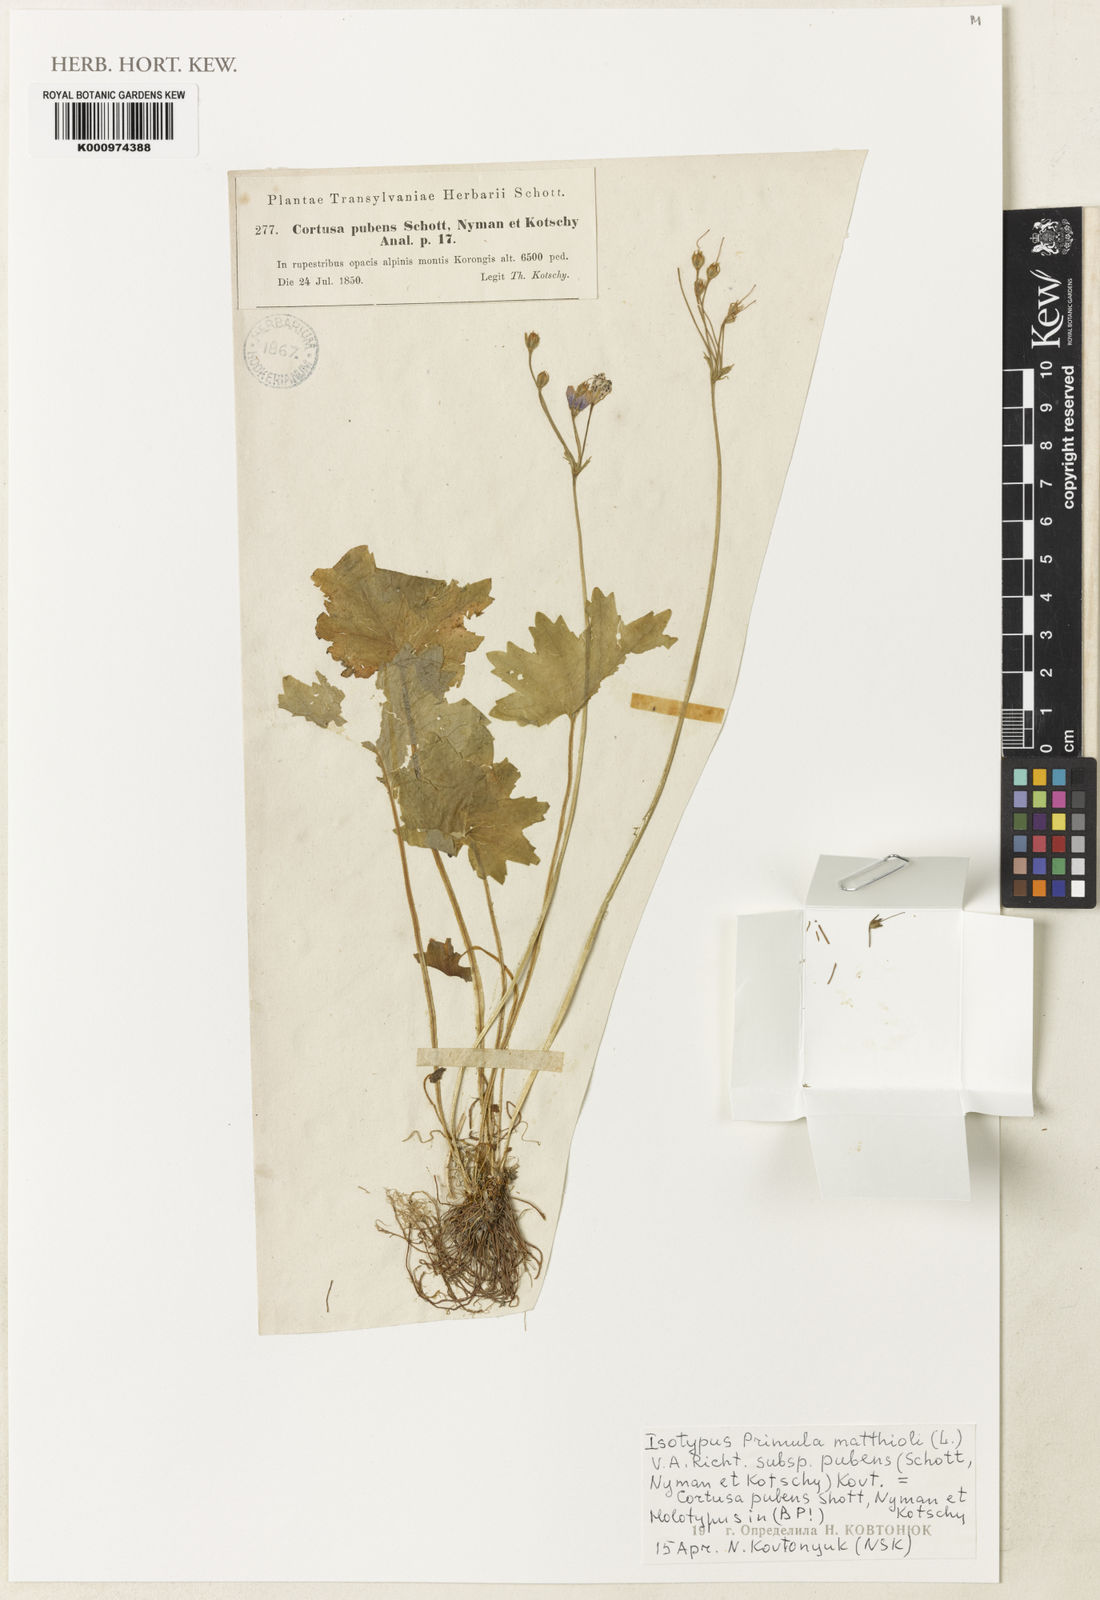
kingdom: Plantae
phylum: Tracheophyta
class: Magnoliopsida
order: Ericales
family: Primulaceae
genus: Primula
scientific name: Primula matthioli
